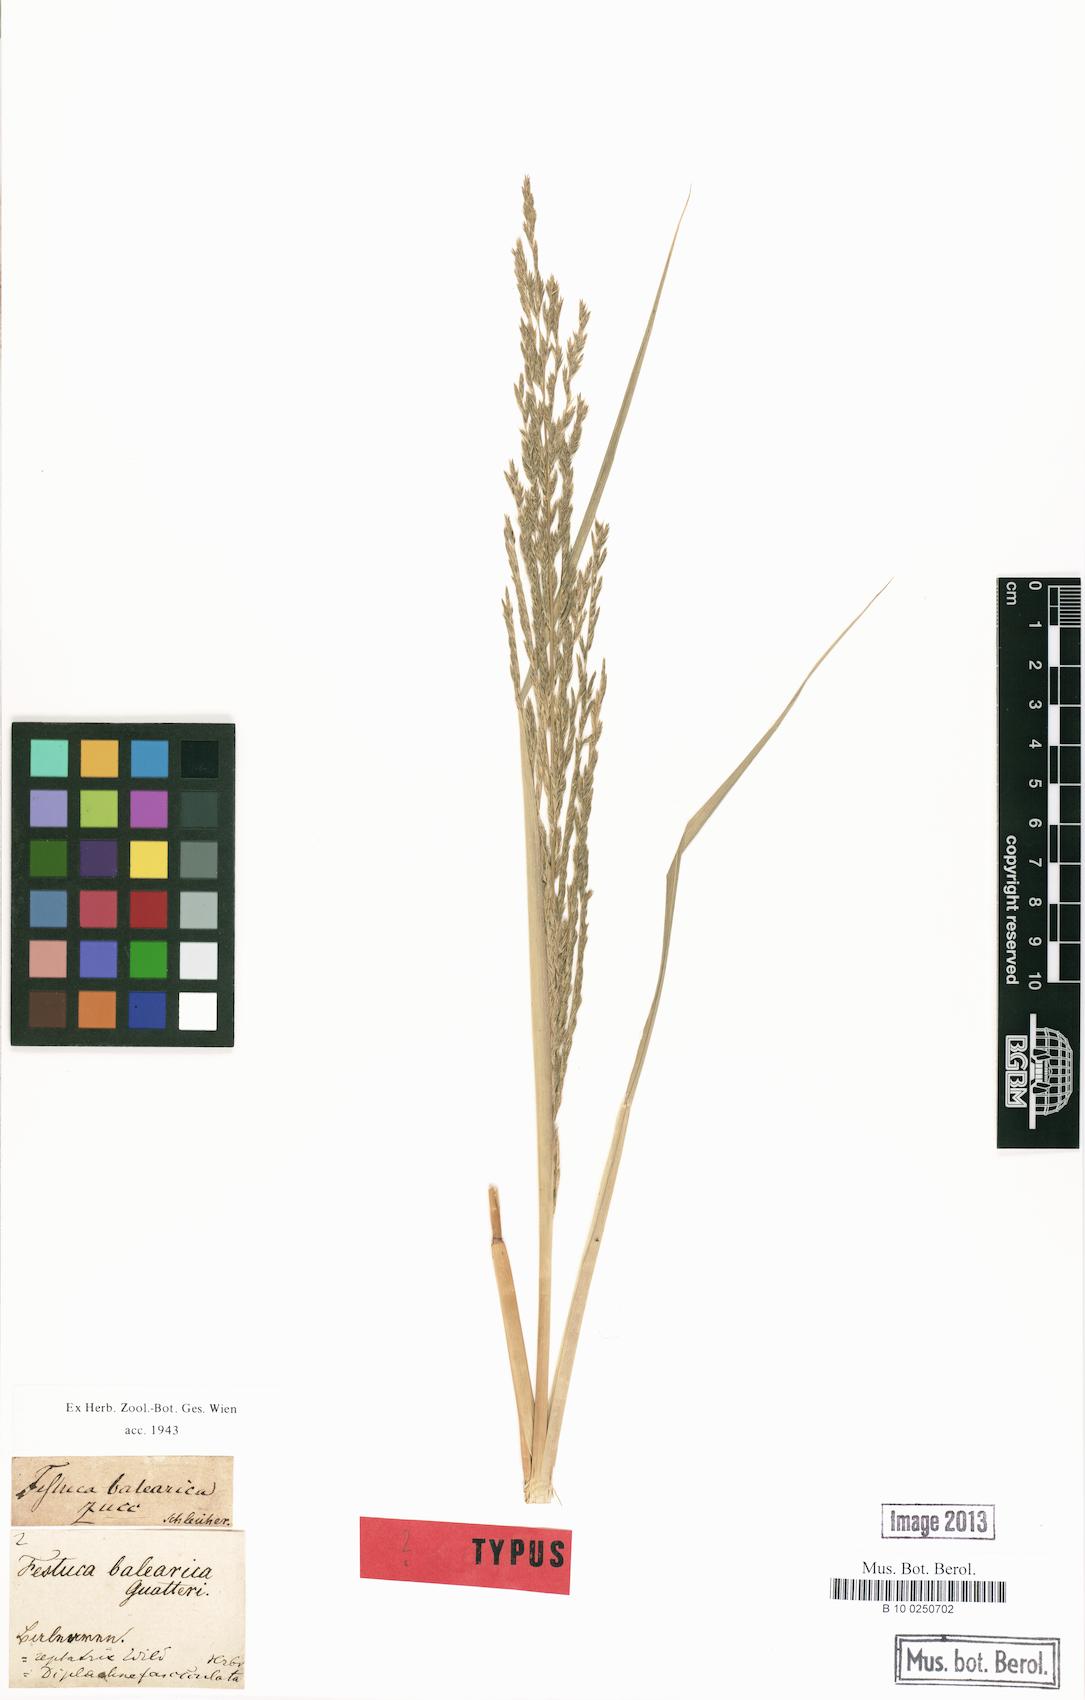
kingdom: Plantae
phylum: Tracheophyta
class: Liliopsida
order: Poales
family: Poaceae
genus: Festuca
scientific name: Festuca rubra
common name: Red fescue
